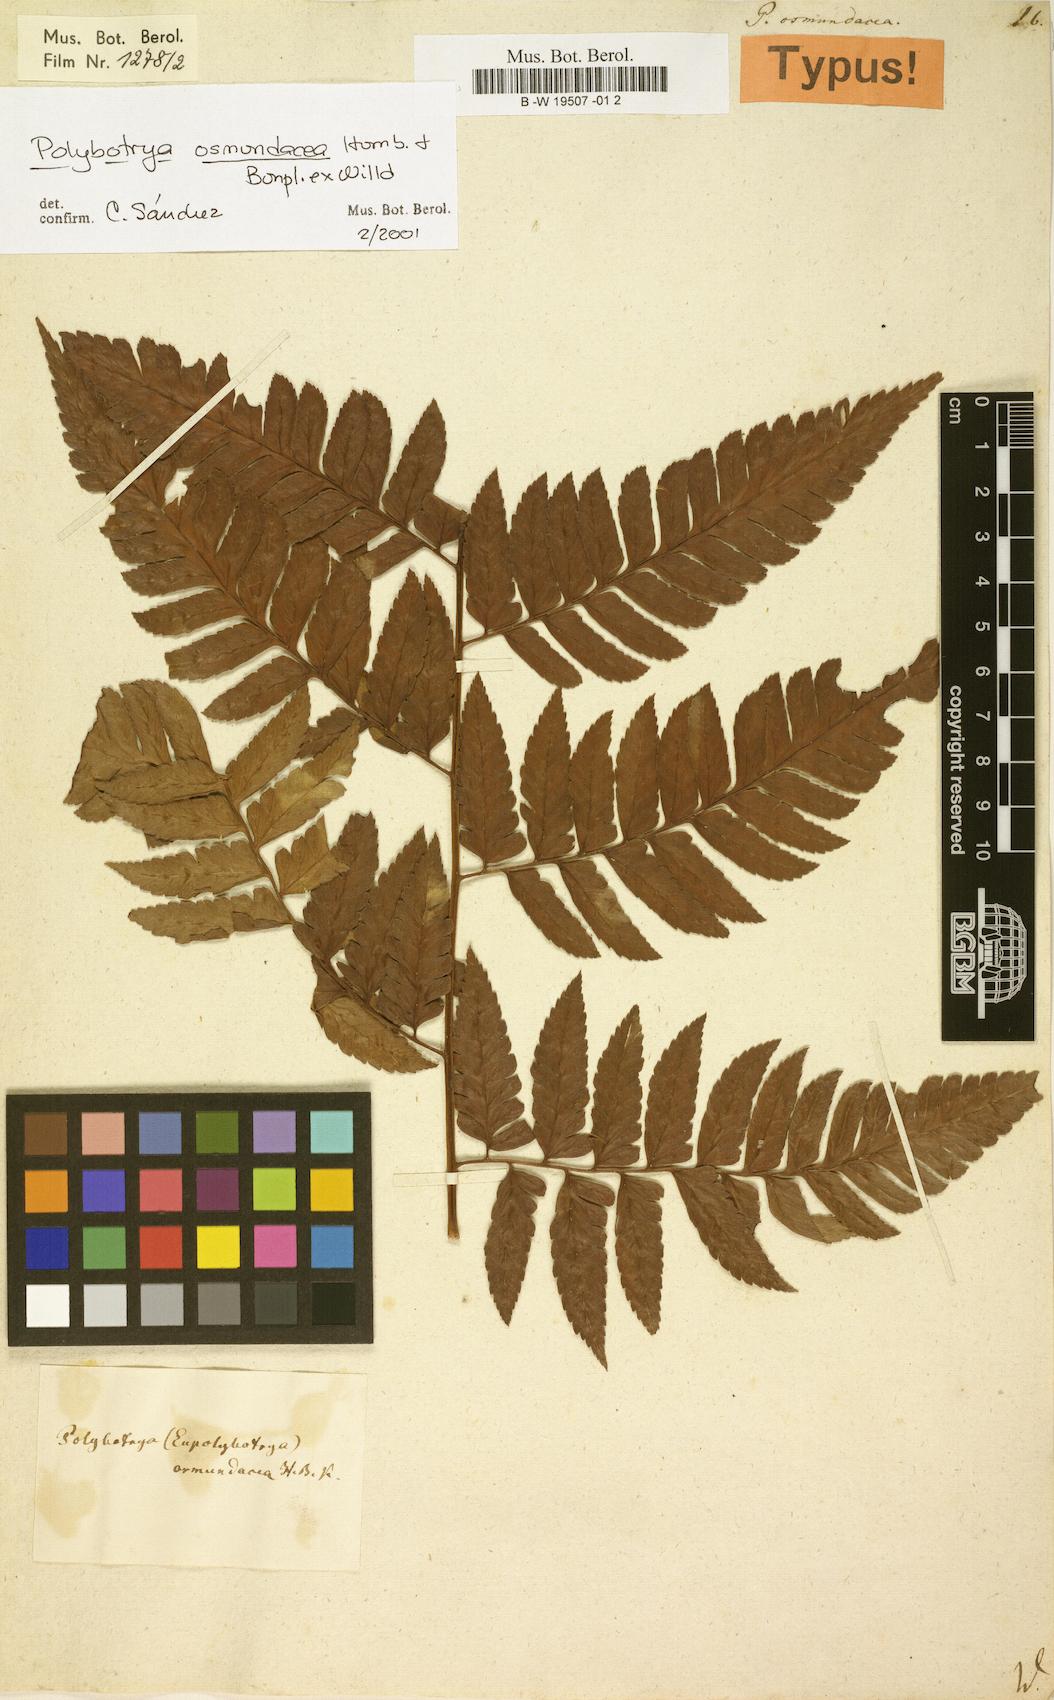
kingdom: Plantae
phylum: Tracheophyta
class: Polypodiopsida
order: Polypodiales
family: Dryopteridaceae
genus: Polybotrya
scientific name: Polybotrya osmundacea
